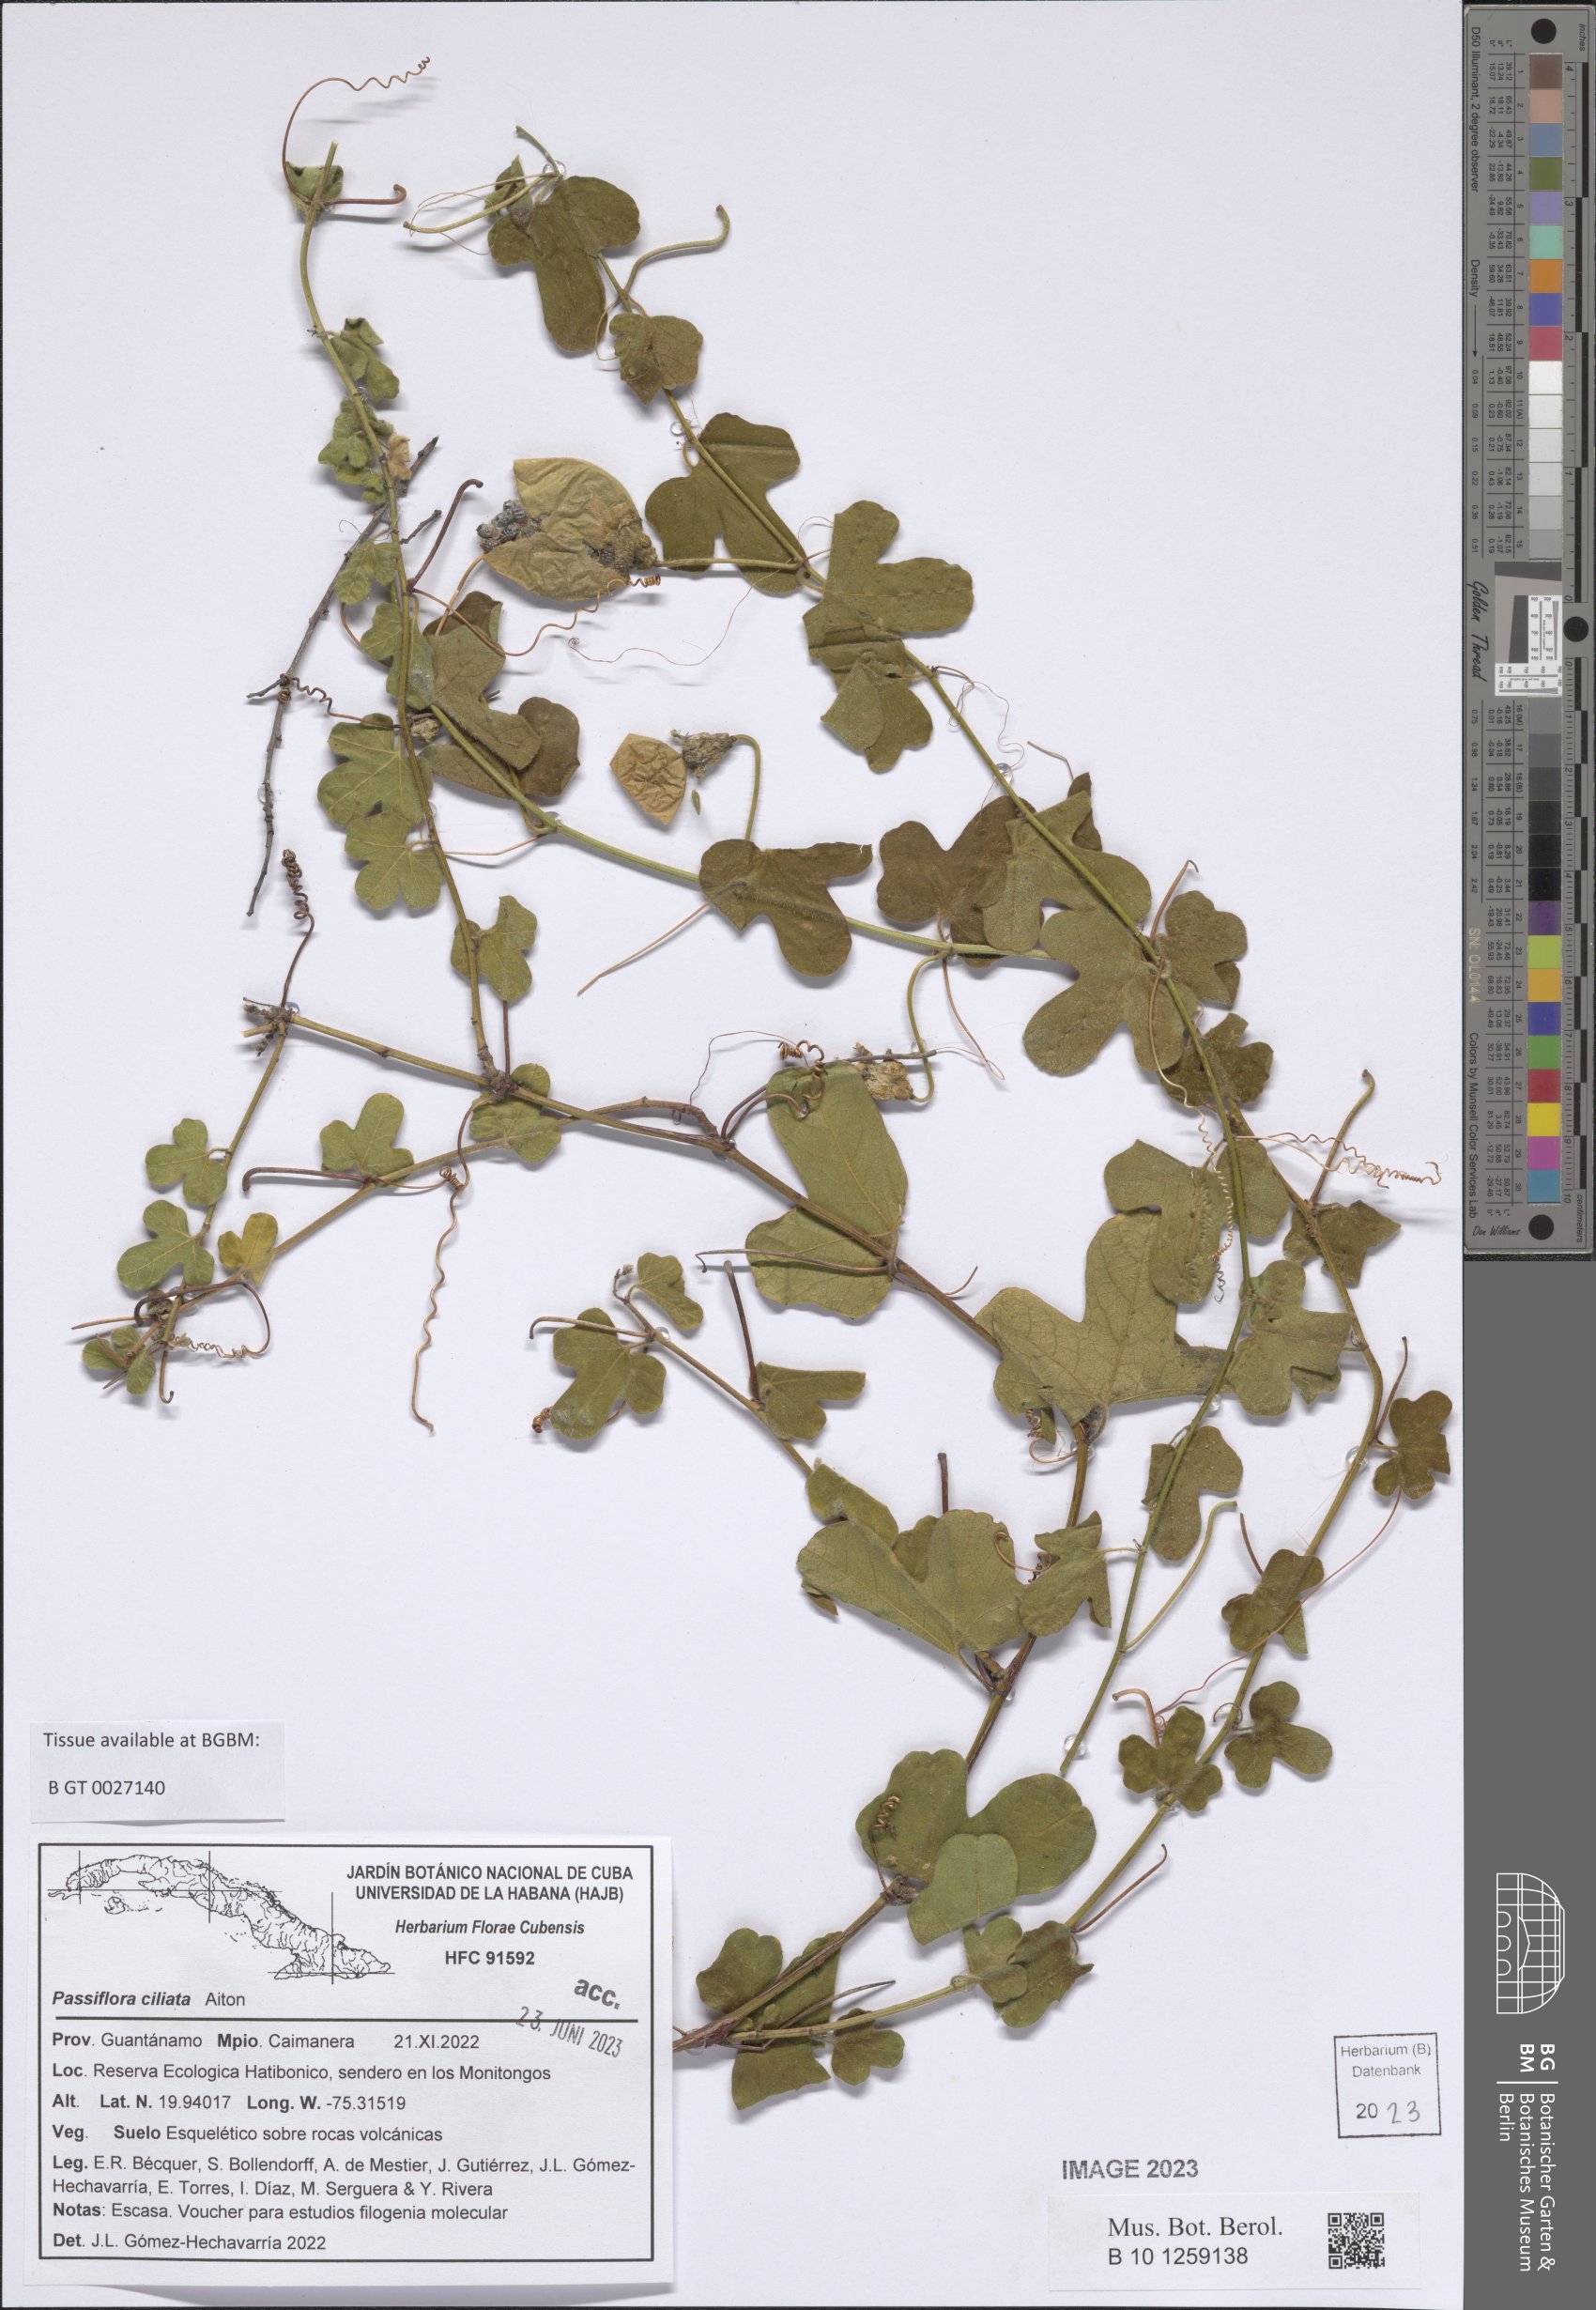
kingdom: Plantae
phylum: Tracheophyta
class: Magnoliopsida
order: Malpighiales
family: Passifloraceae
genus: Passiflora
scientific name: Passiflora ciliata
